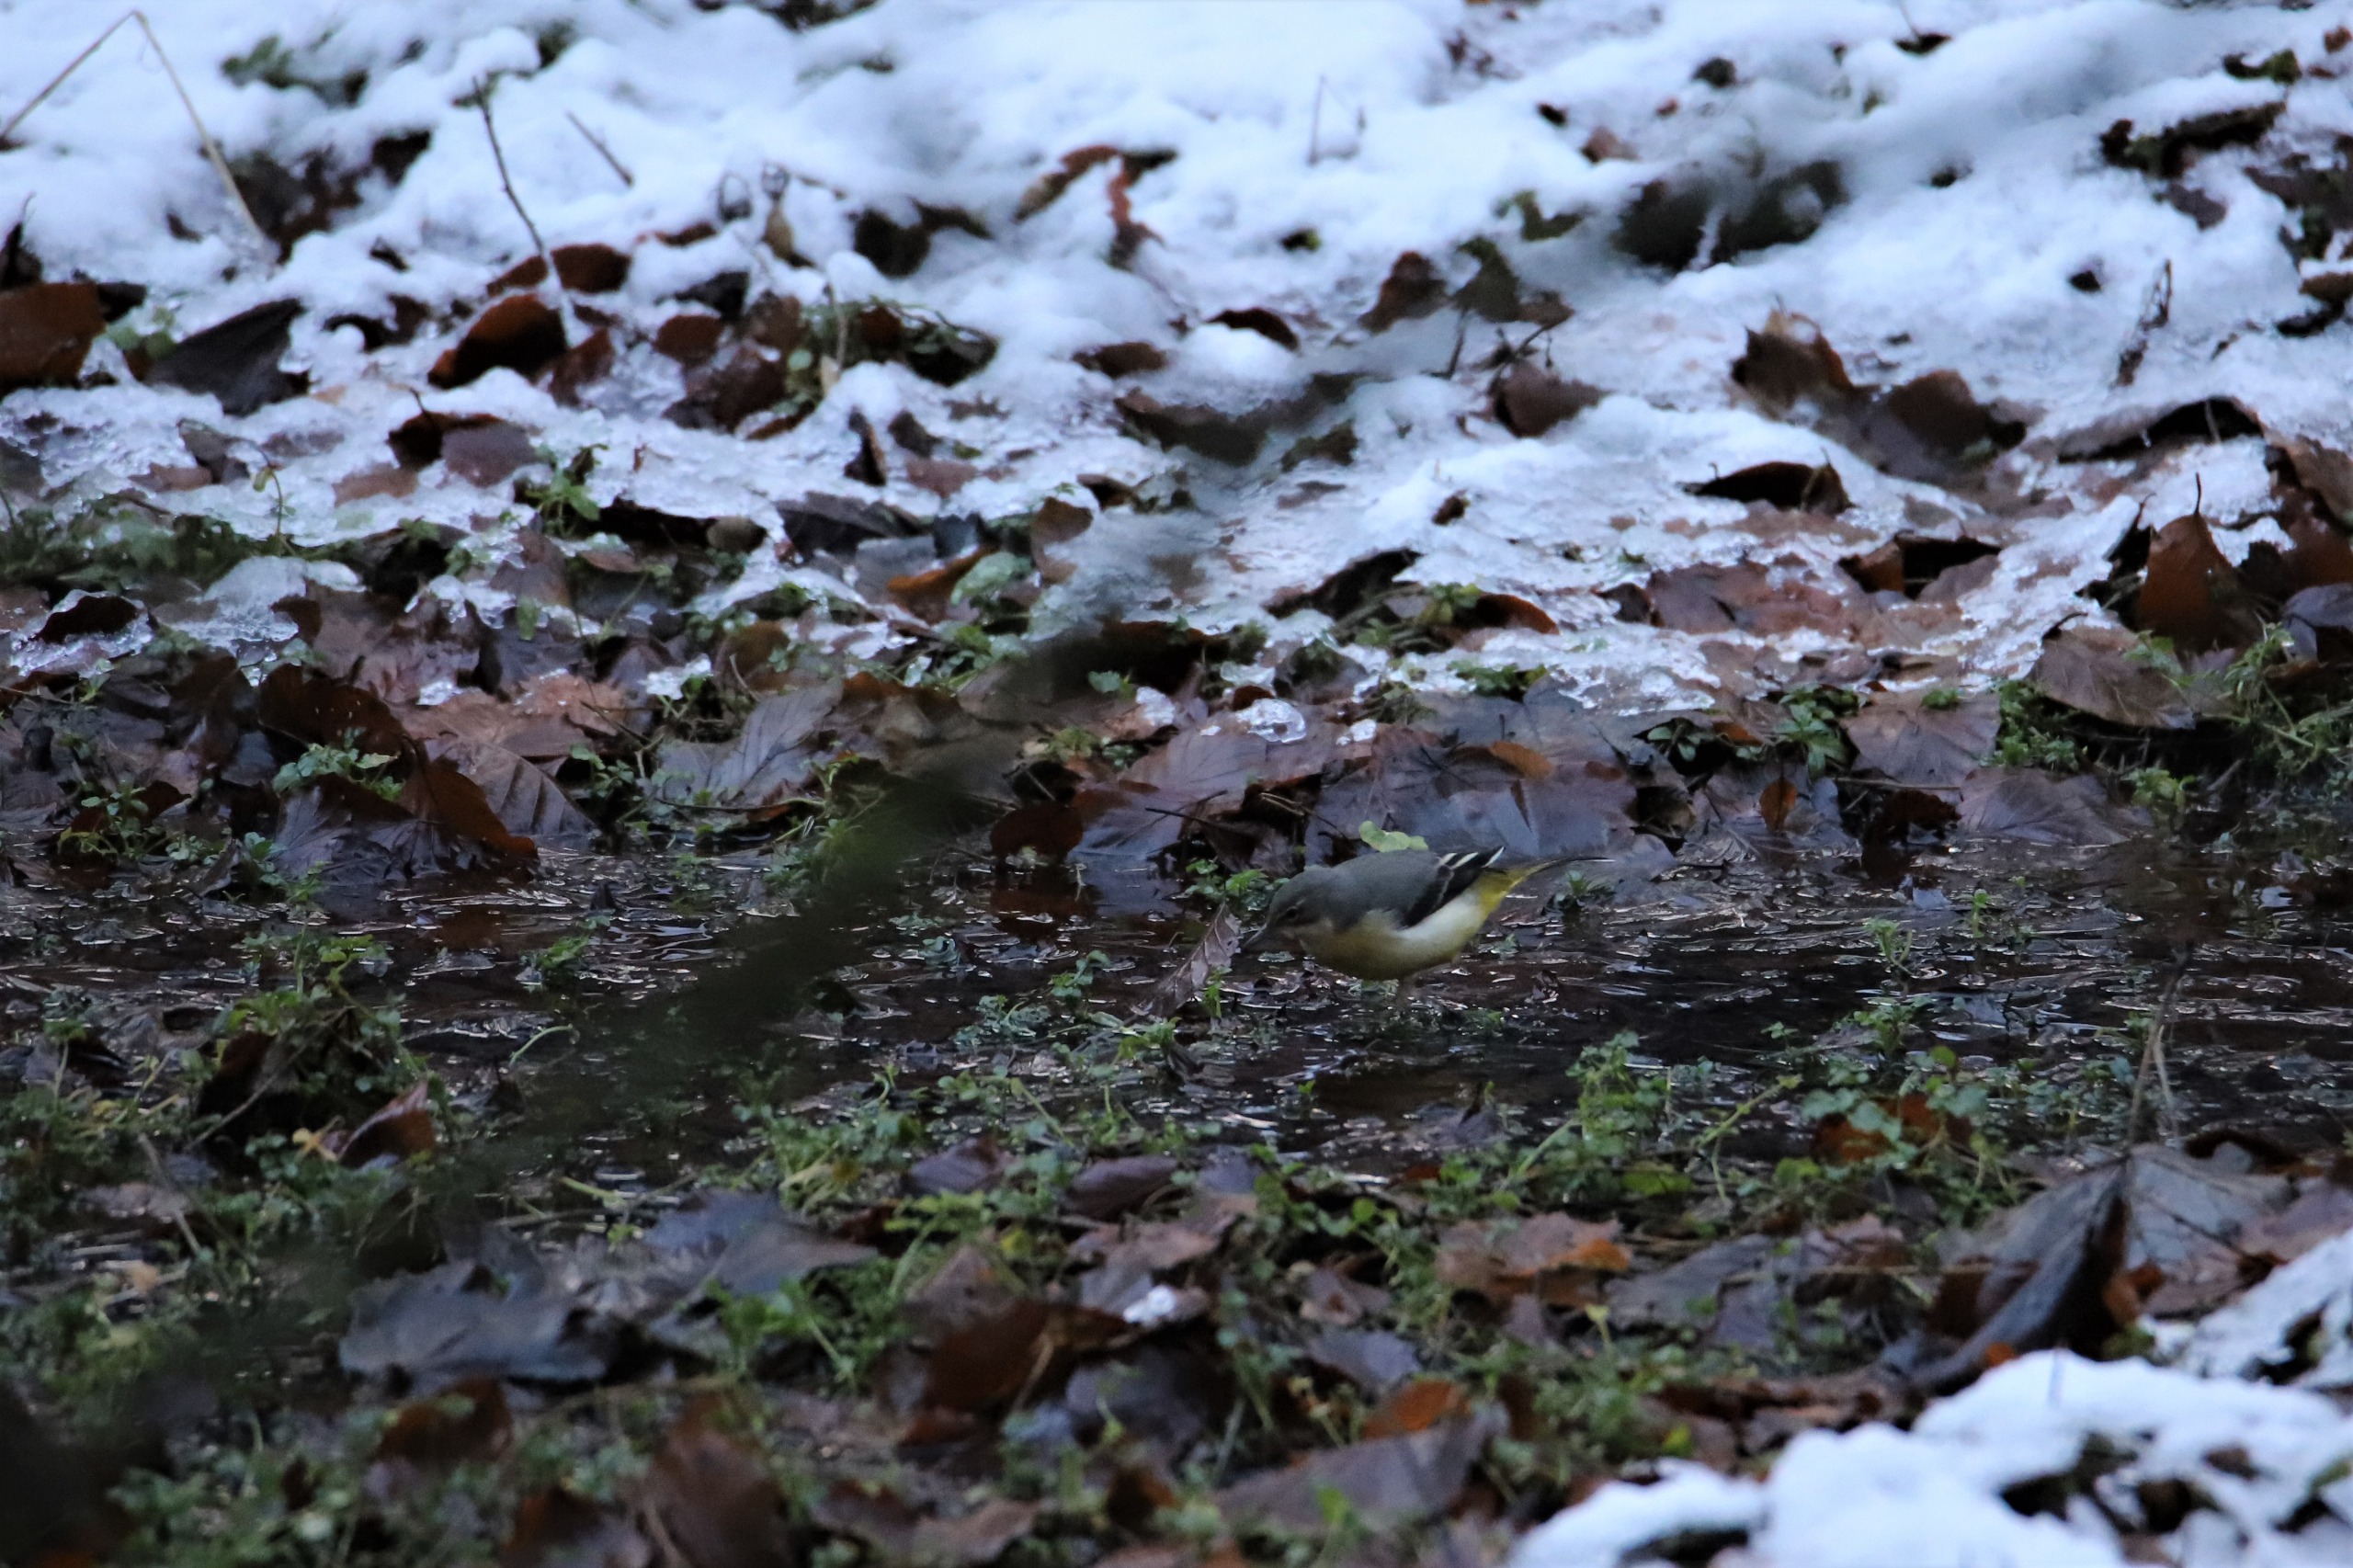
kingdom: Animalia
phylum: Chordata
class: Aves
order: Passeriformes
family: Motacillidae
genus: Motacilla
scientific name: Motacilla cinerea
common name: Bjergvipstjert
